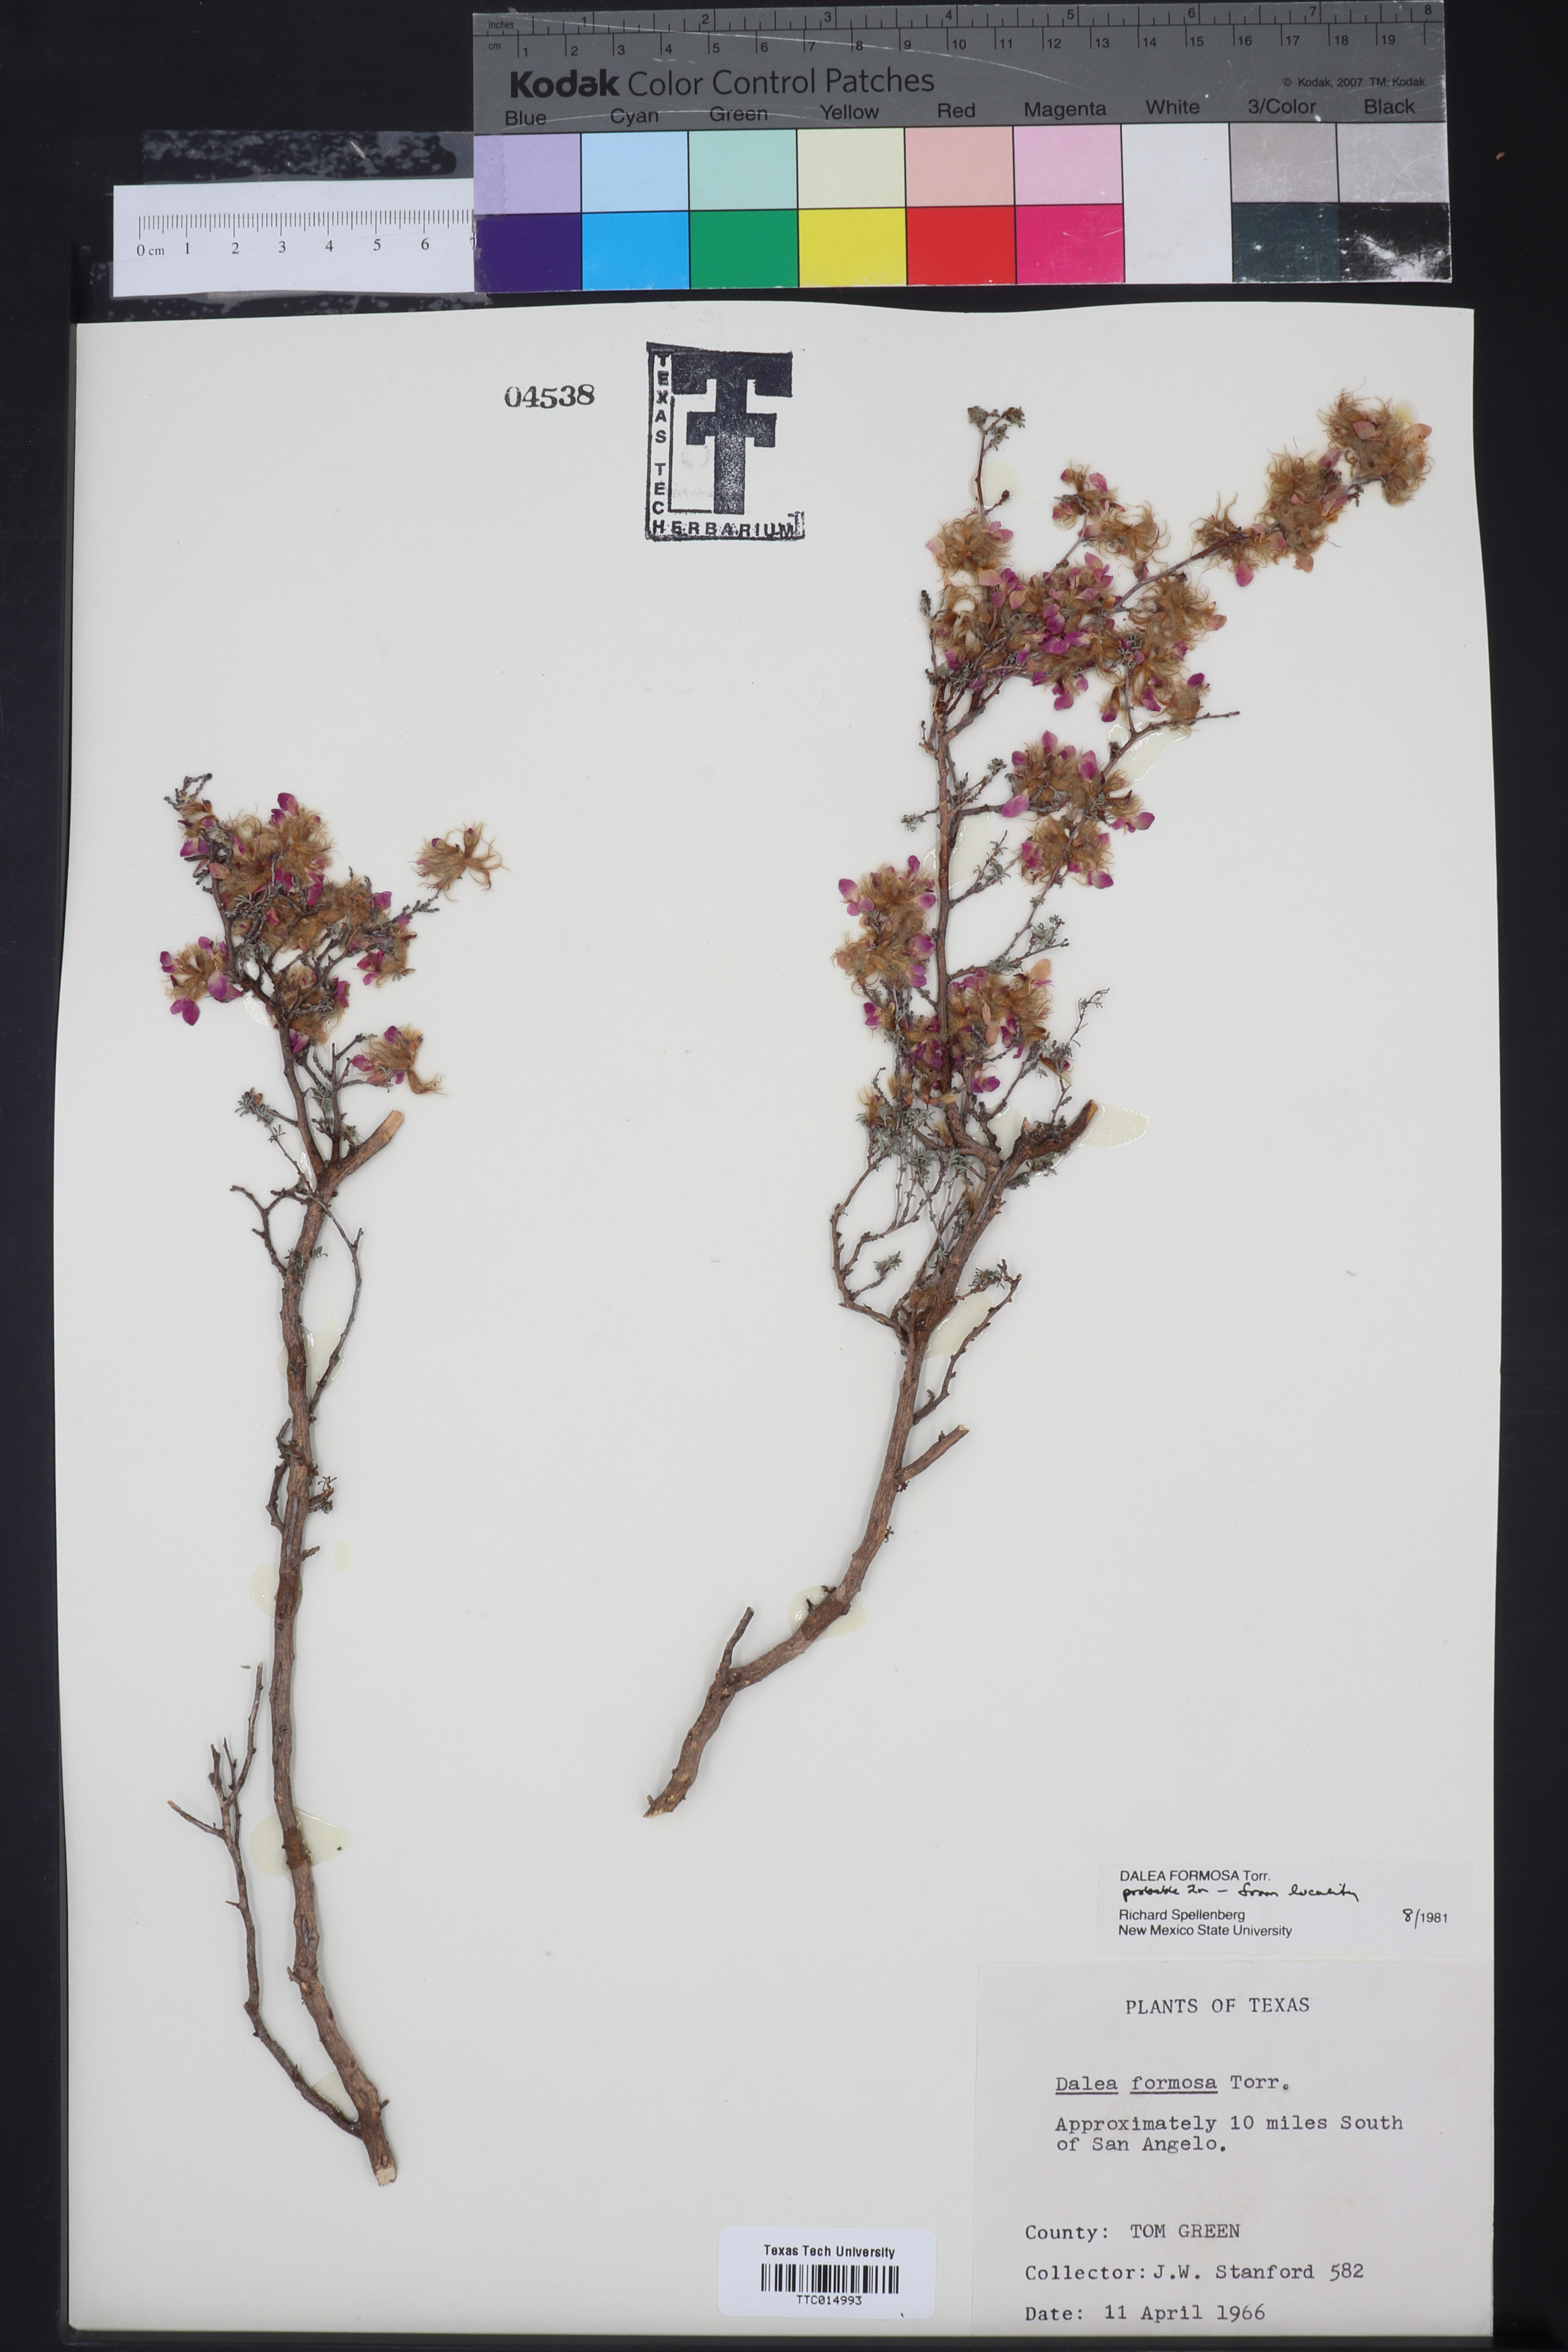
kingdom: Plantae
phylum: Tracheophyta
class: Magnoliopsida
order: Fabales
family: Fabaceae
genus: Dalea
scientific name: Dalea formosa
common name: Feather-plume dalea
